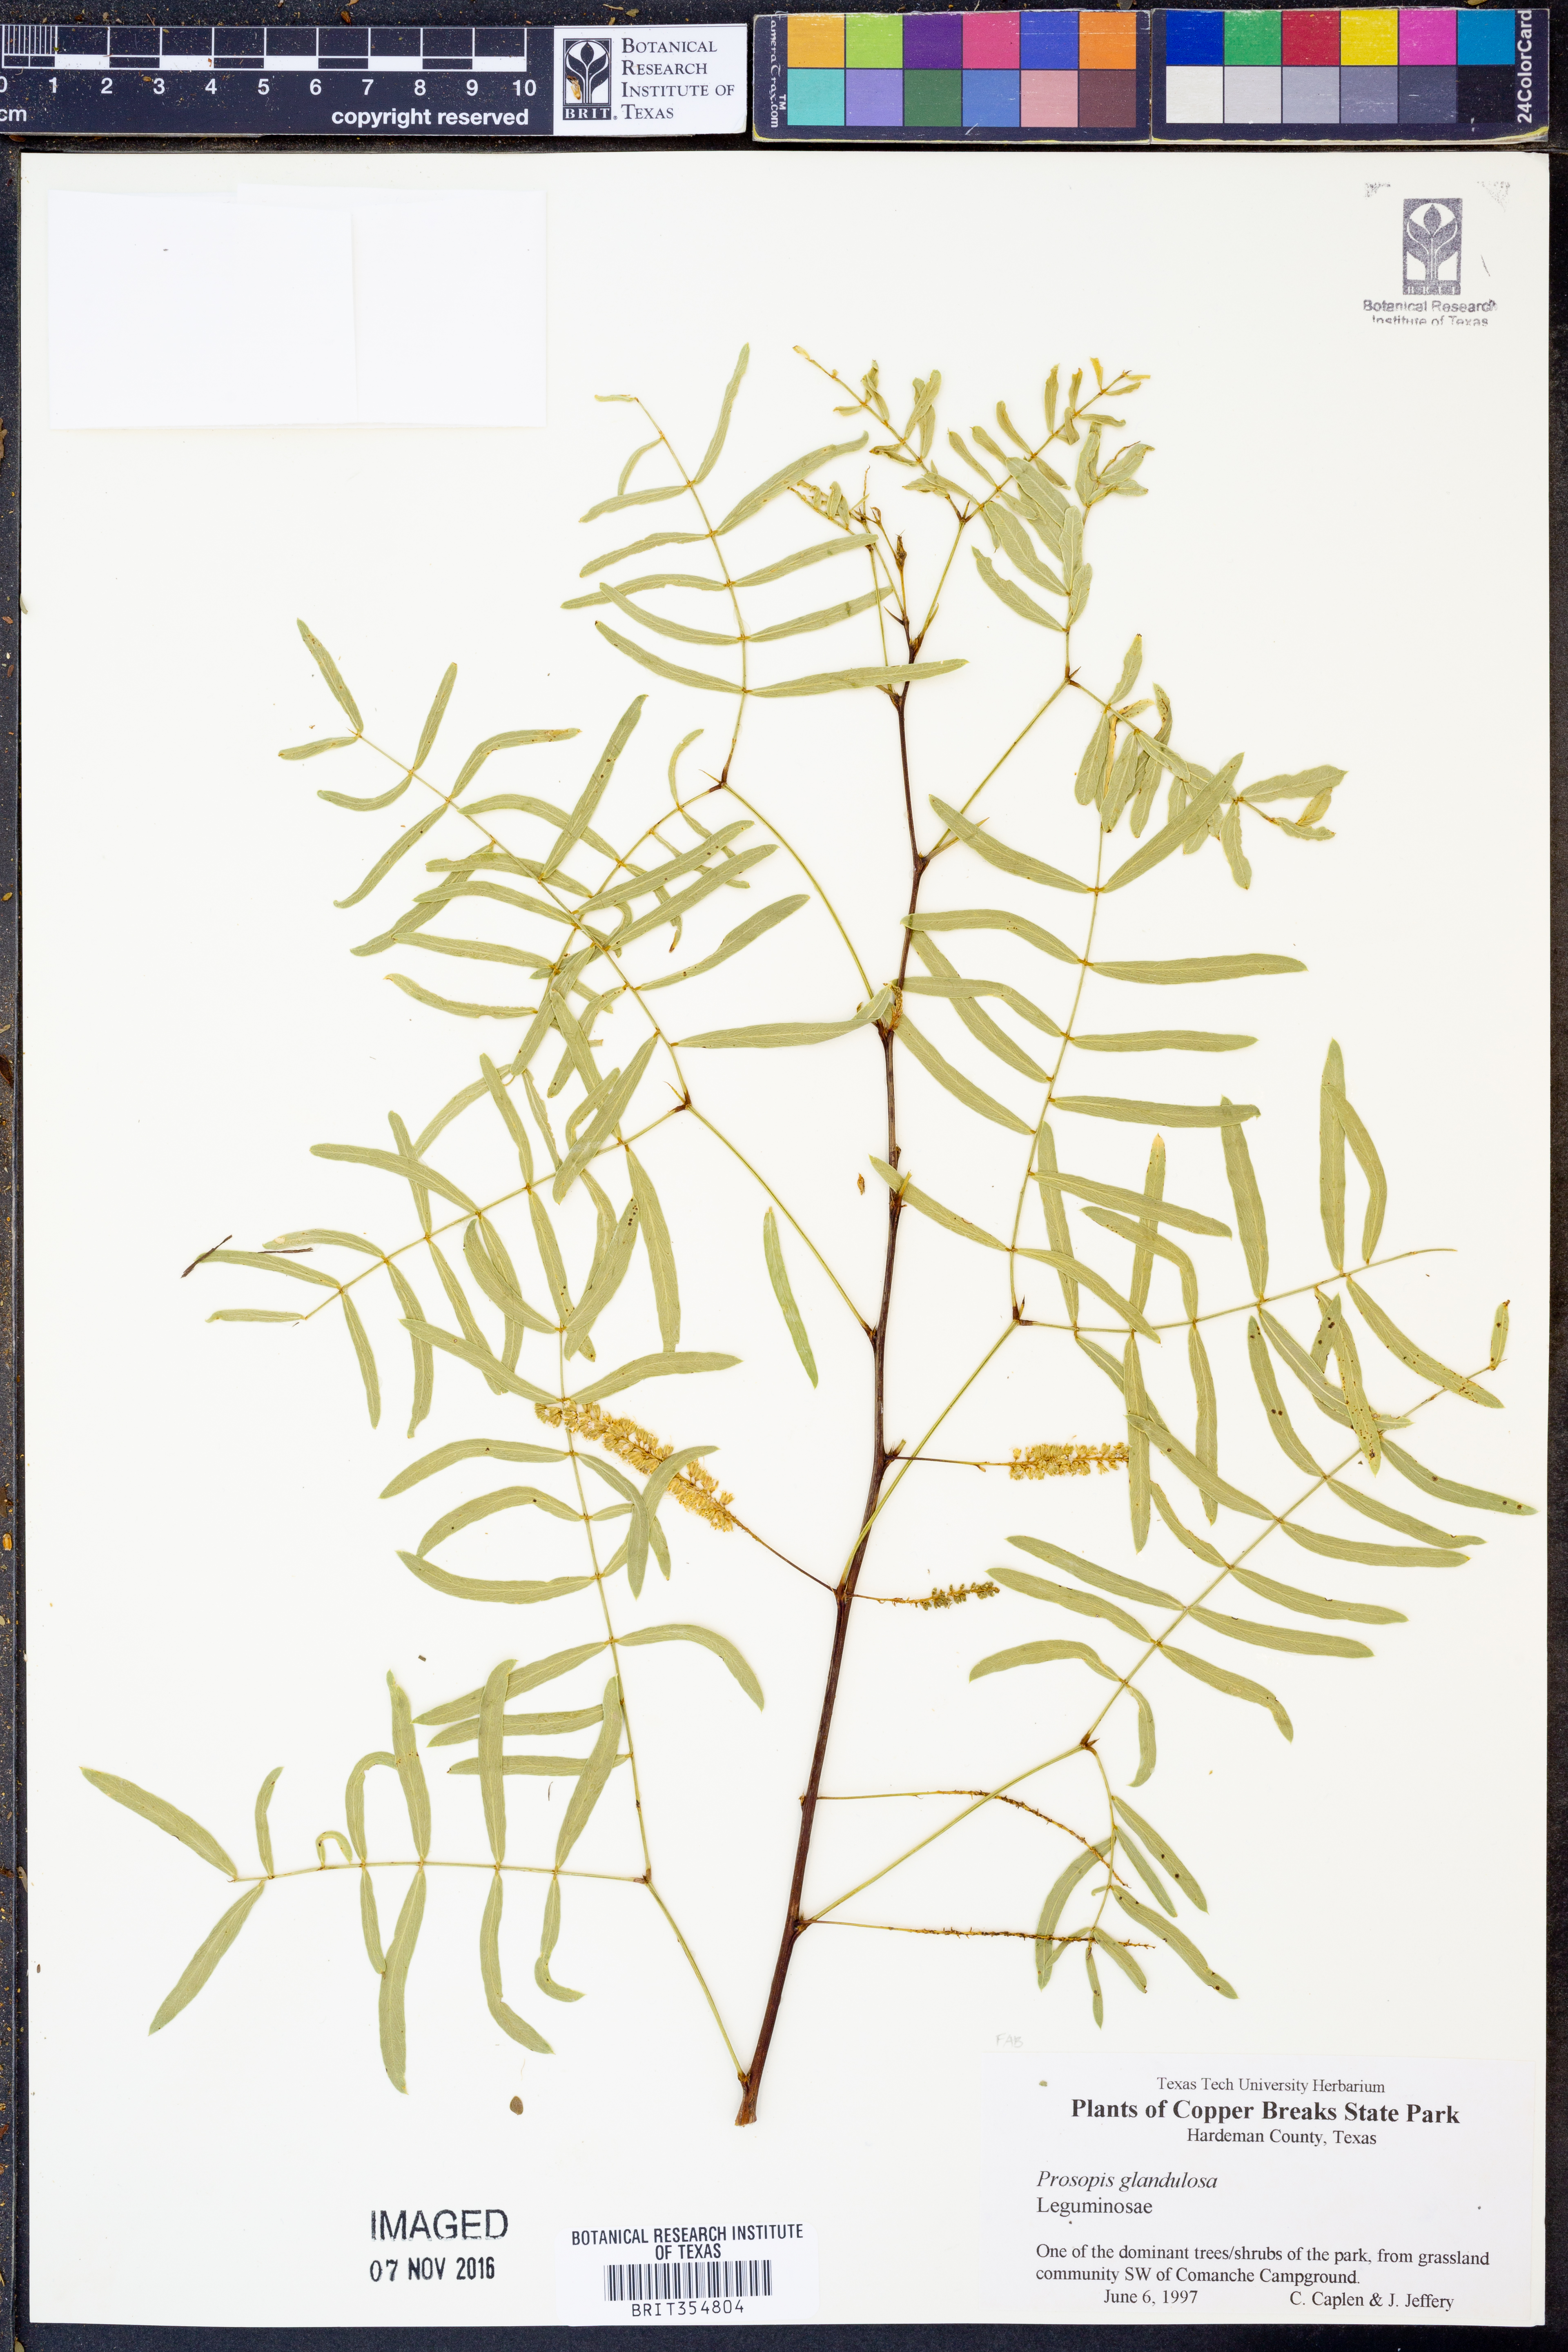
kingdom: Plantae
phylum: Tracheophyta
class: Magnoliopsida
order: Fabales
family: Fabaceae
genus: Prosopis
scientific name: Prosopis glandulosa
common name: Honey mesquite
